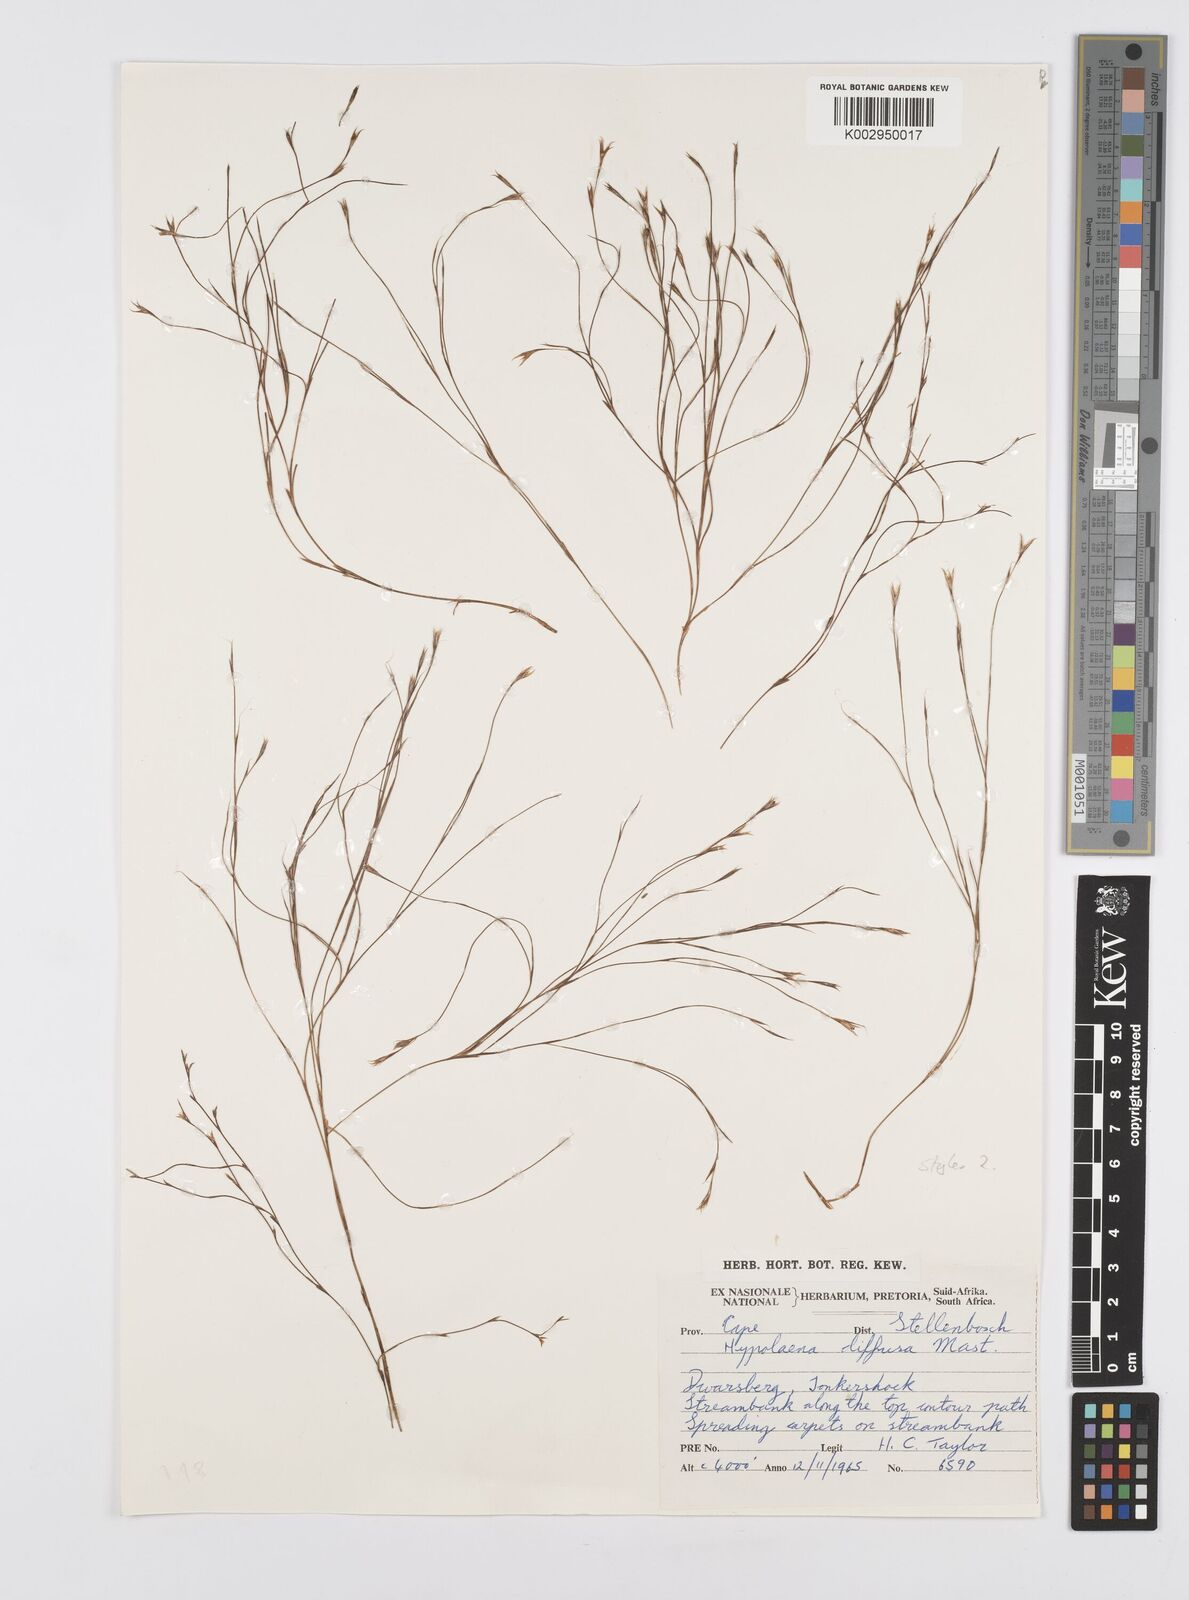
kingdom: Plantae
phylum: Tracheophyta
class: Liliopsida
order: Poales
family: Restionaceae
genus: Anthochortus
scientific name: Anthochortus
